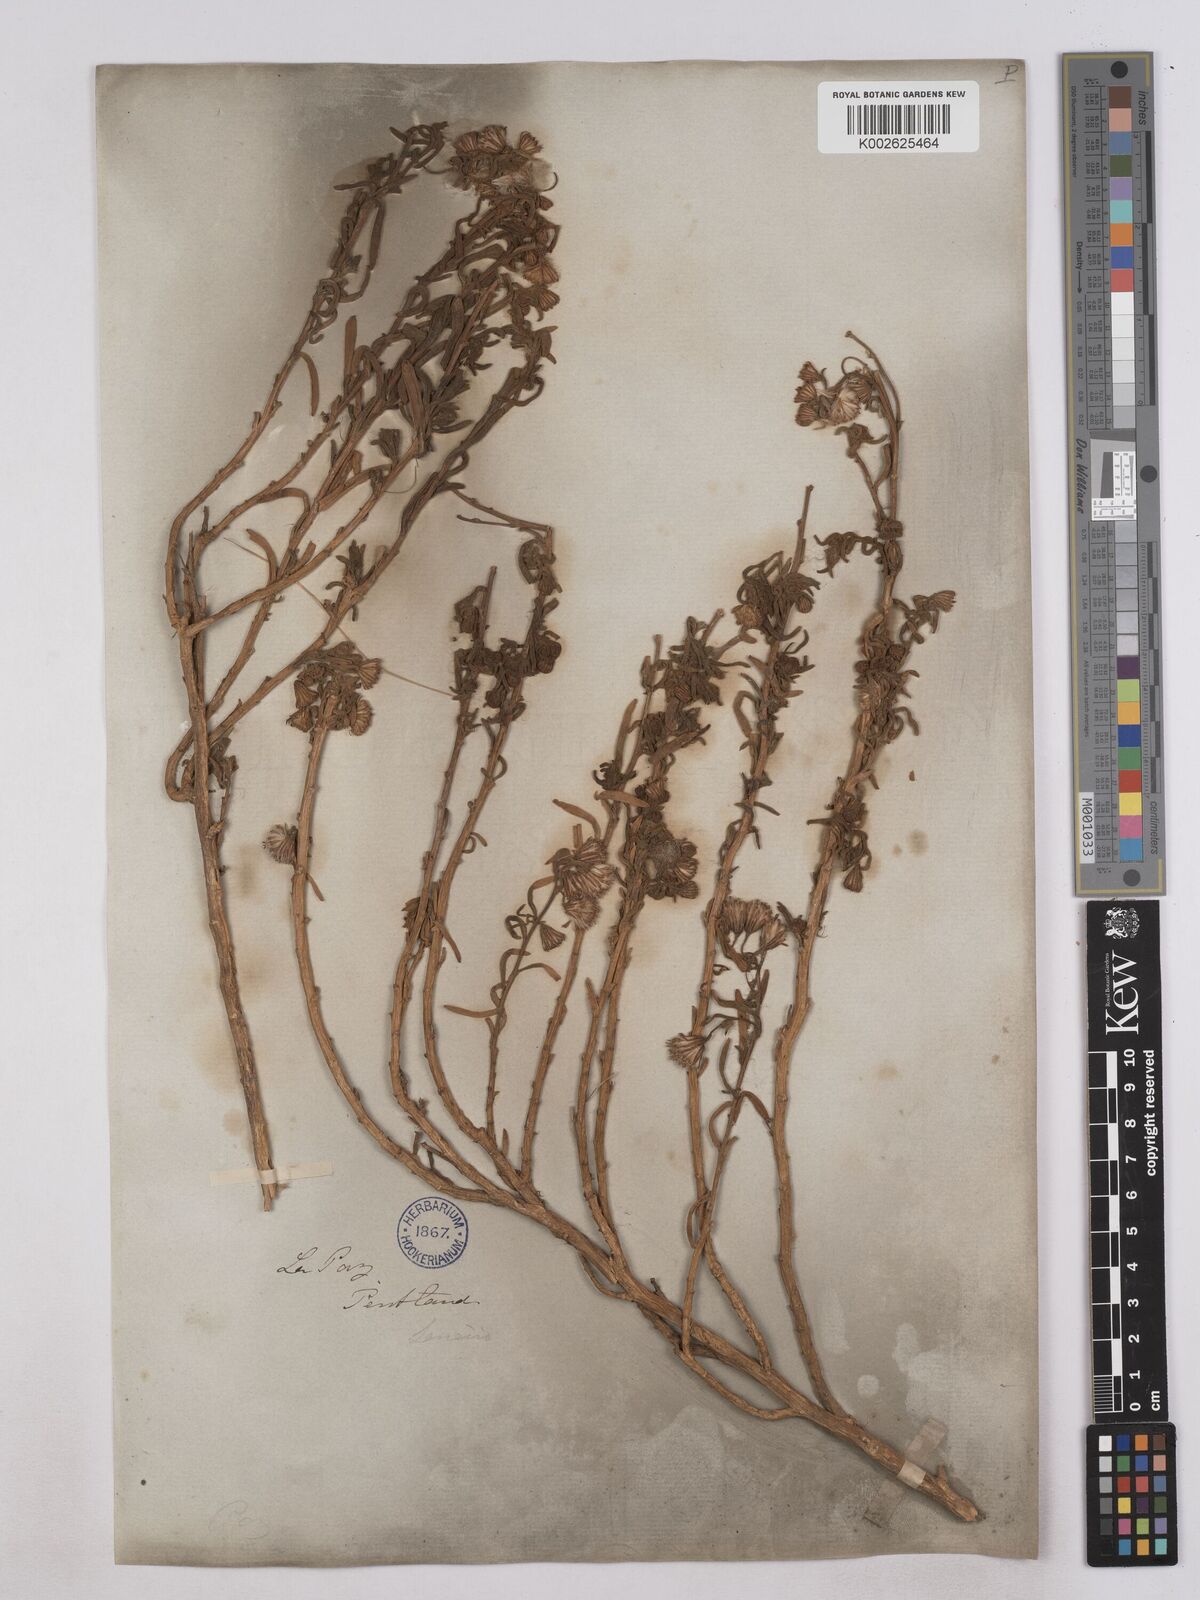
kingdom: Plantae
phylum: Tracheophyta
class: Magnoliopsida
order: Asterales
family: Asteraceae
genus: Senecio
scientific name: Senecio rufescens
